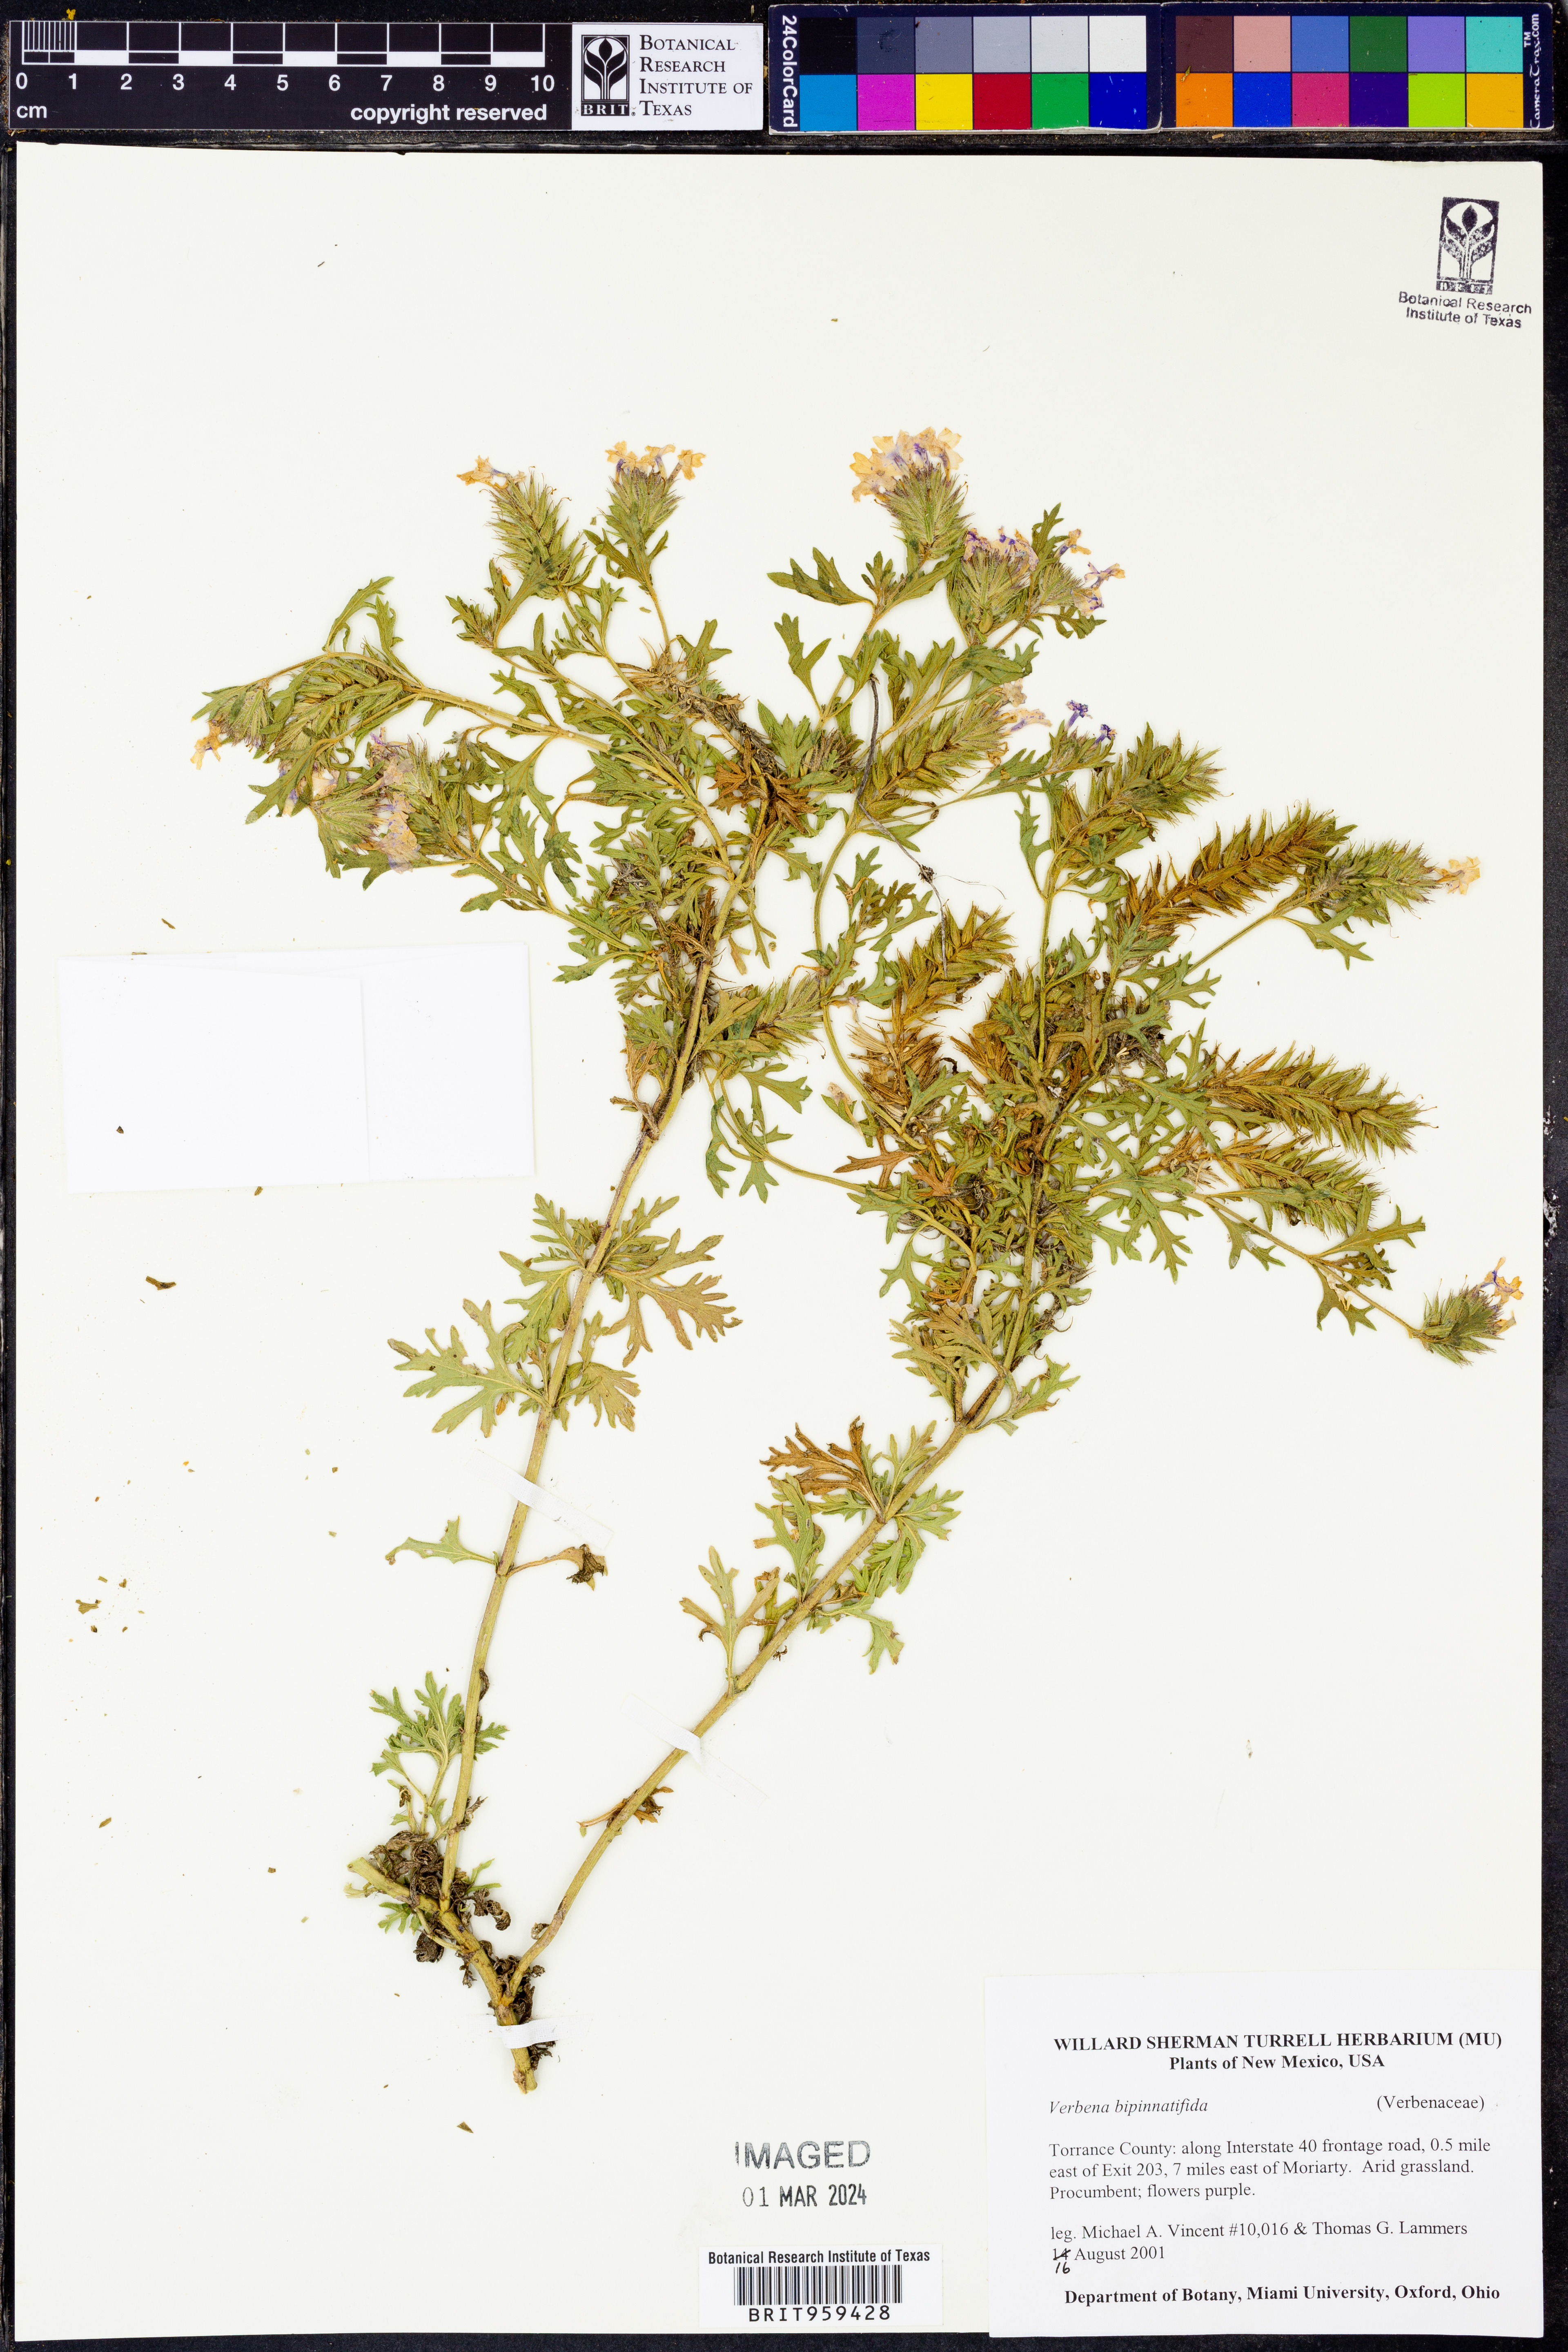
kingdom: Plantae
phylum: Tracheophyta
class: Magnoliopsida
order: Lamiales
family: Verbenaceae
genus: Verbena
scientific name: Verbena bipinnatifida
